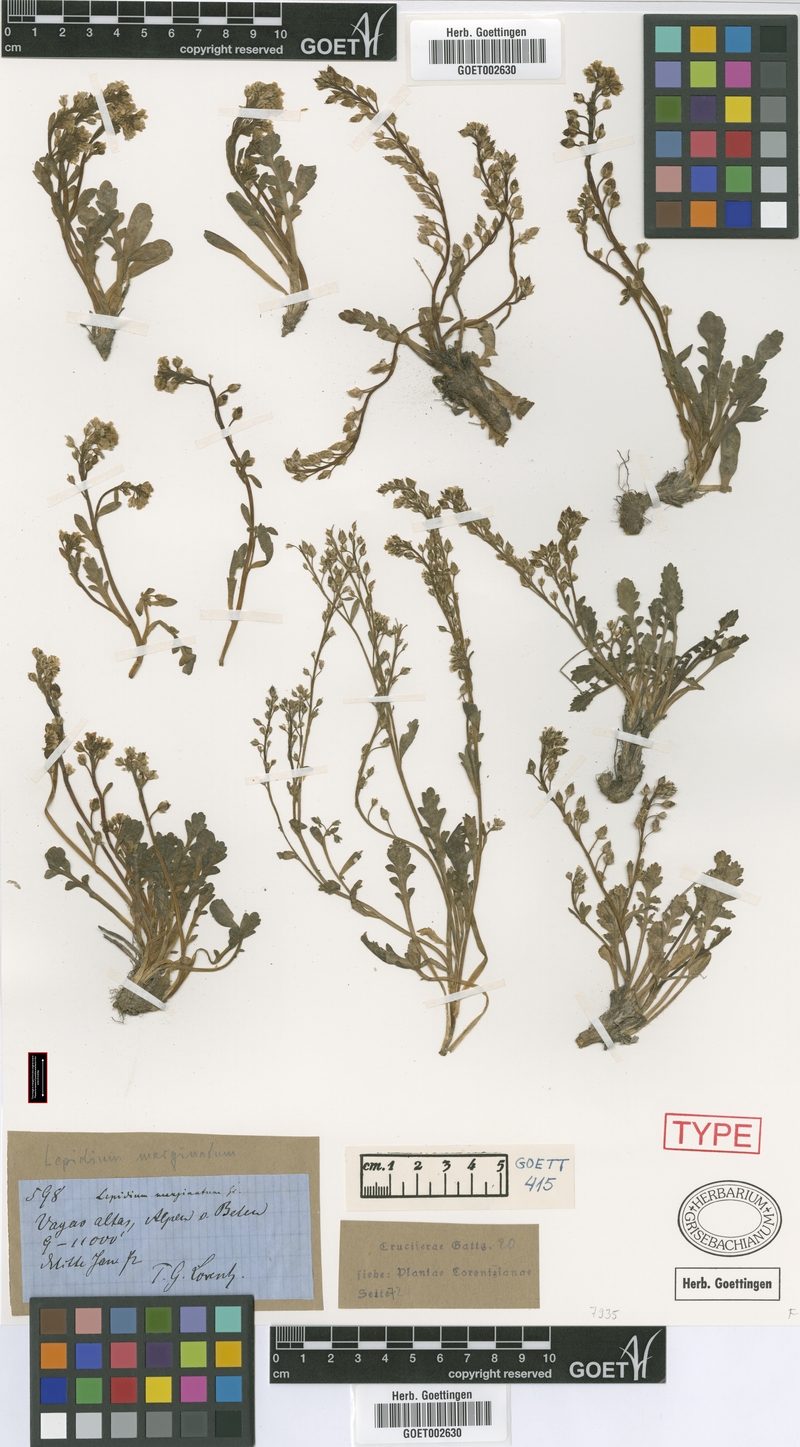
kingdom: Plantae
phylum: Tracheophyta
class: Magnoliopsida
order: Brassicales
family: Brassicaceae
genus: Lepidium
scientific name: Lepidium marginatum
